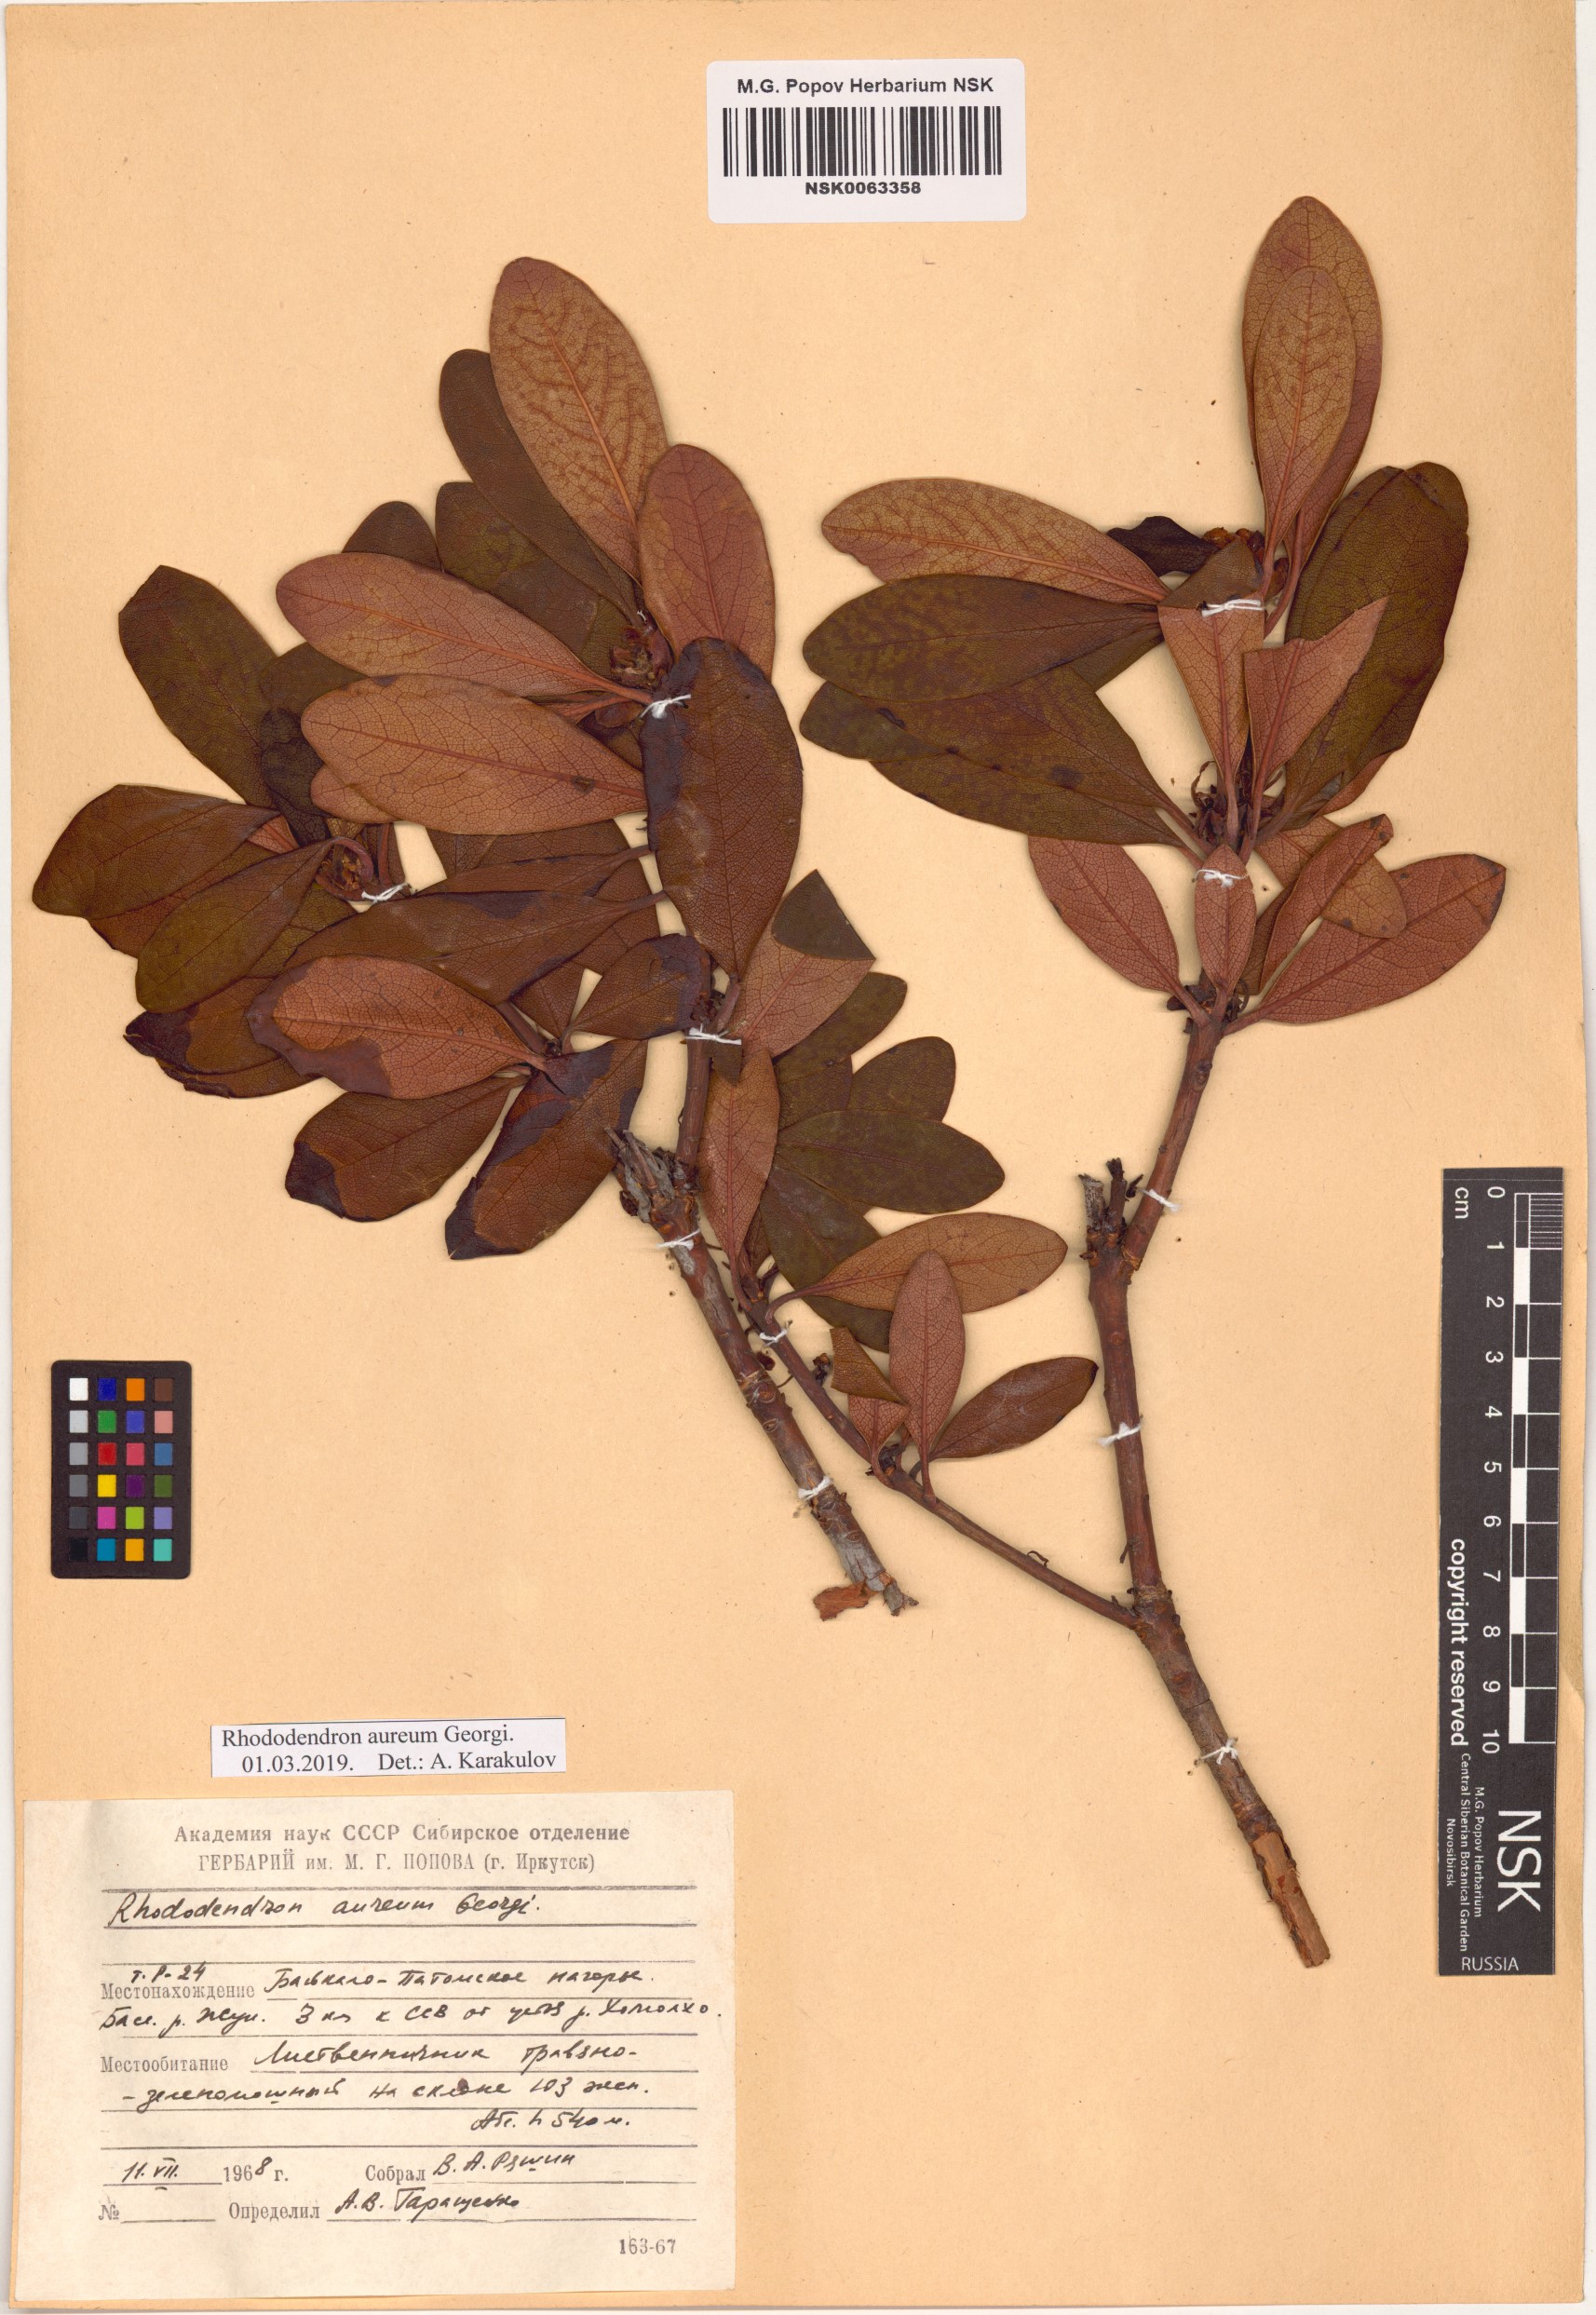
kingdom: Plantae
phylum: Tracheophyta
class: Magnoliopsida
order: Ericales
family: Ericaceae
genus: Rhododendron
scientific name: Rhododendron aureum
